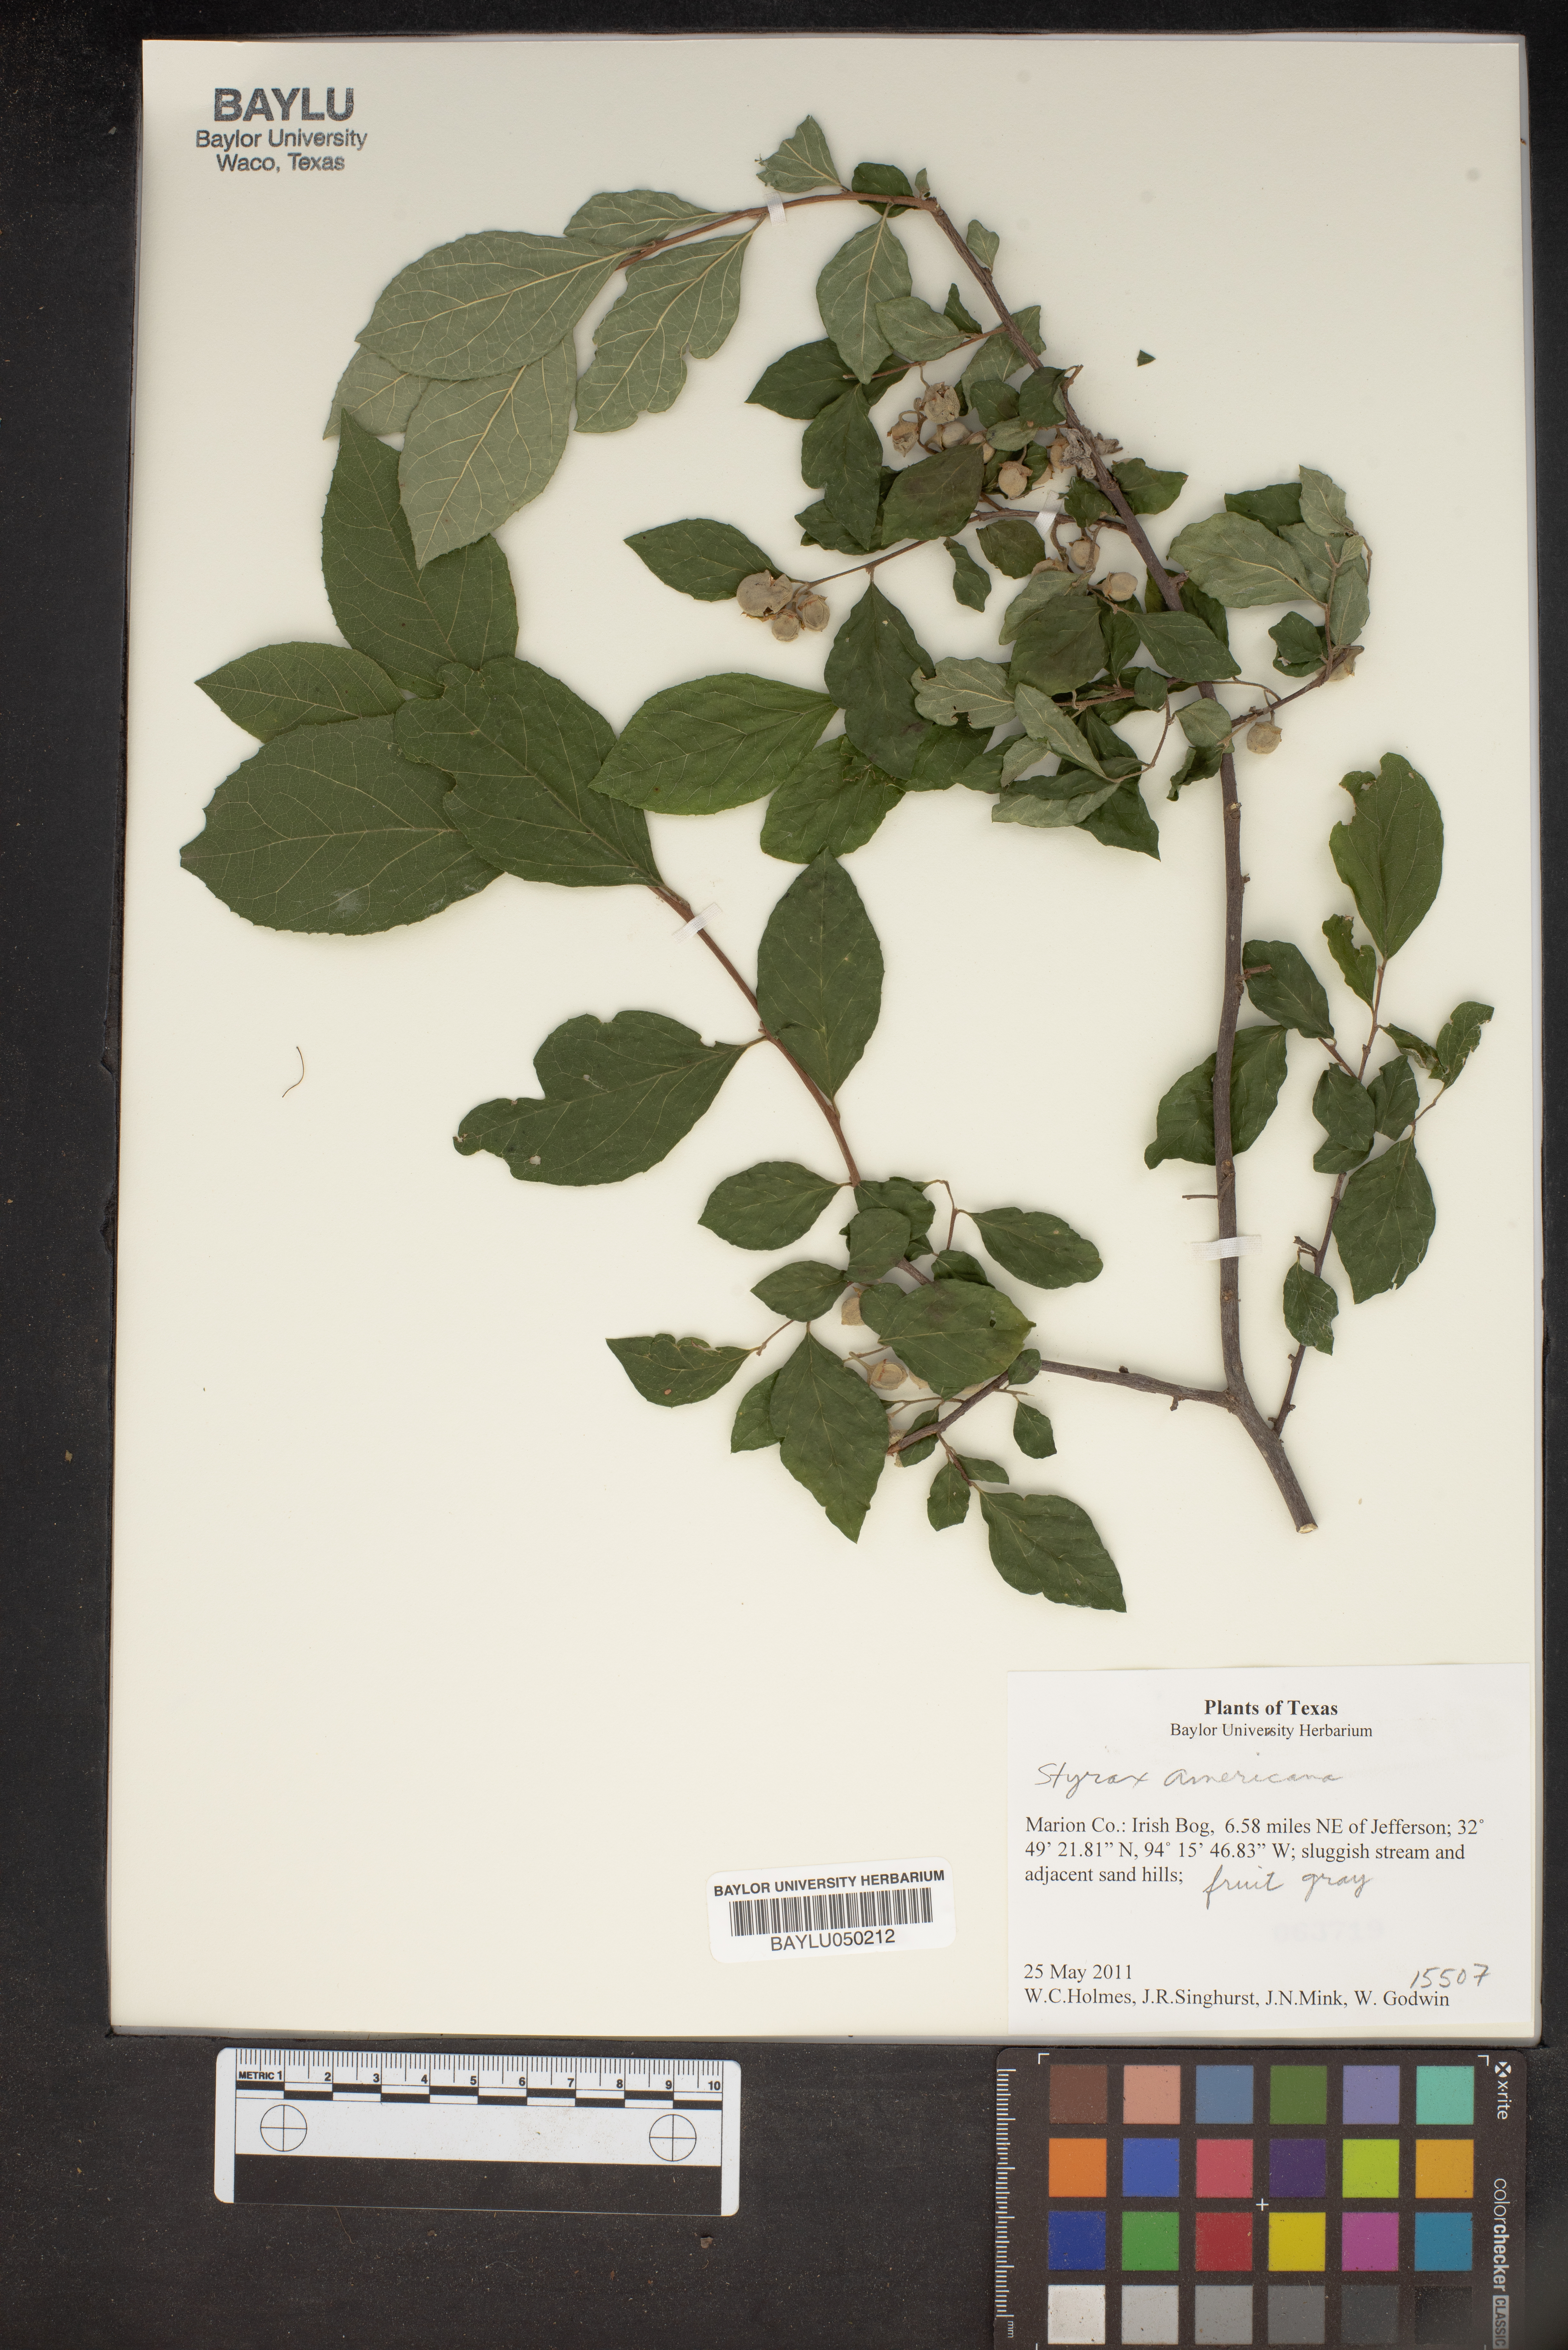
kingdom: Plantae
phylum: Tracheophyta
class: Magnoliopsida
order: Ericales
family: Styracaceae
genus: Styrax
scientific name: Styrax americanus
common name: American snowbell
